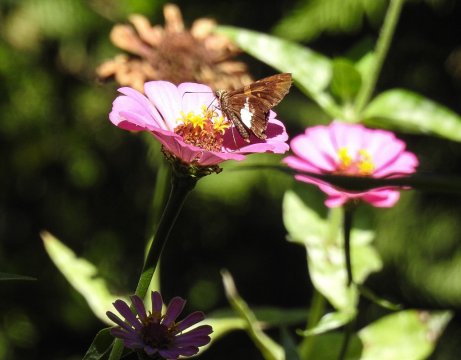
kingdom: Animalia
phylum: Arthropoda
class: Insecta
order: Lepidoptera
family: Hesperiidae
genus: Epargyreus
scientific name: Epargyreus clarus
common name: Silver-spotted Skipper
